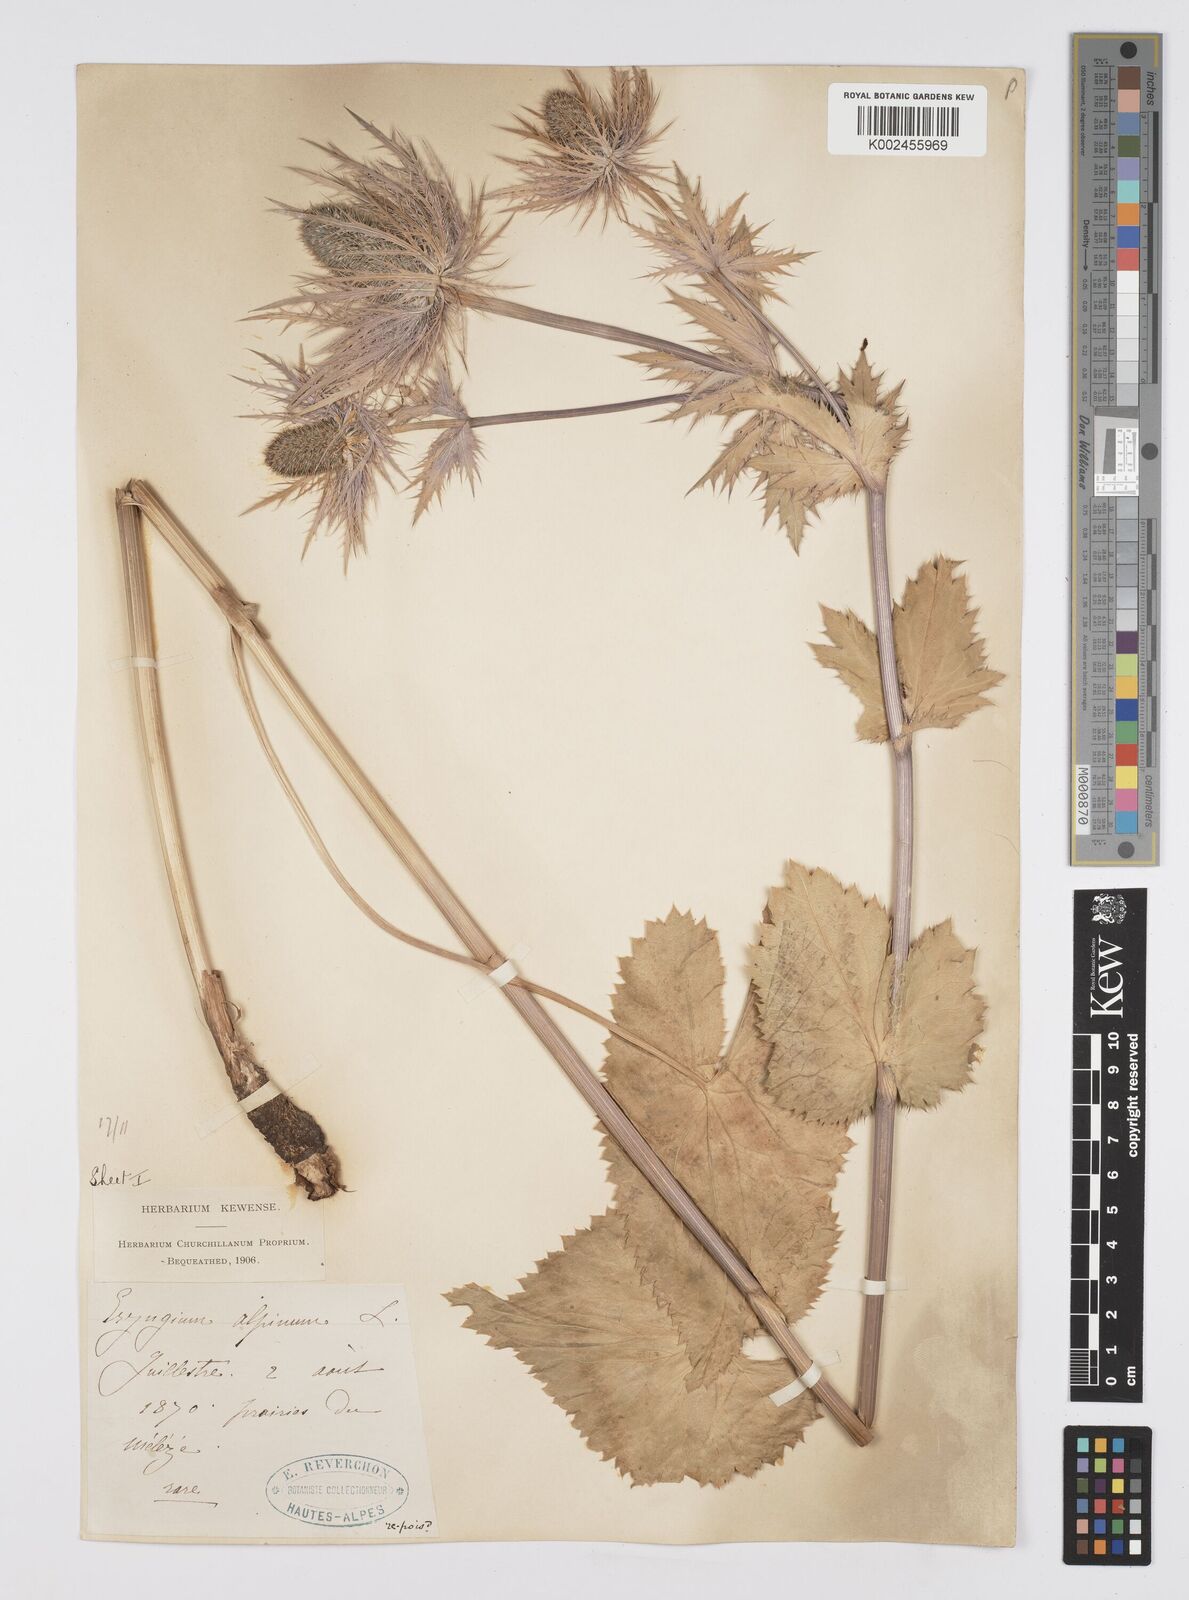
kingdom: Plantae
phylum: Tracheophyta
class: Magnoliopsida
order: Apiales
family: Apiaceae
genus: Eryngium
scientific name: Eryngium alpinum
